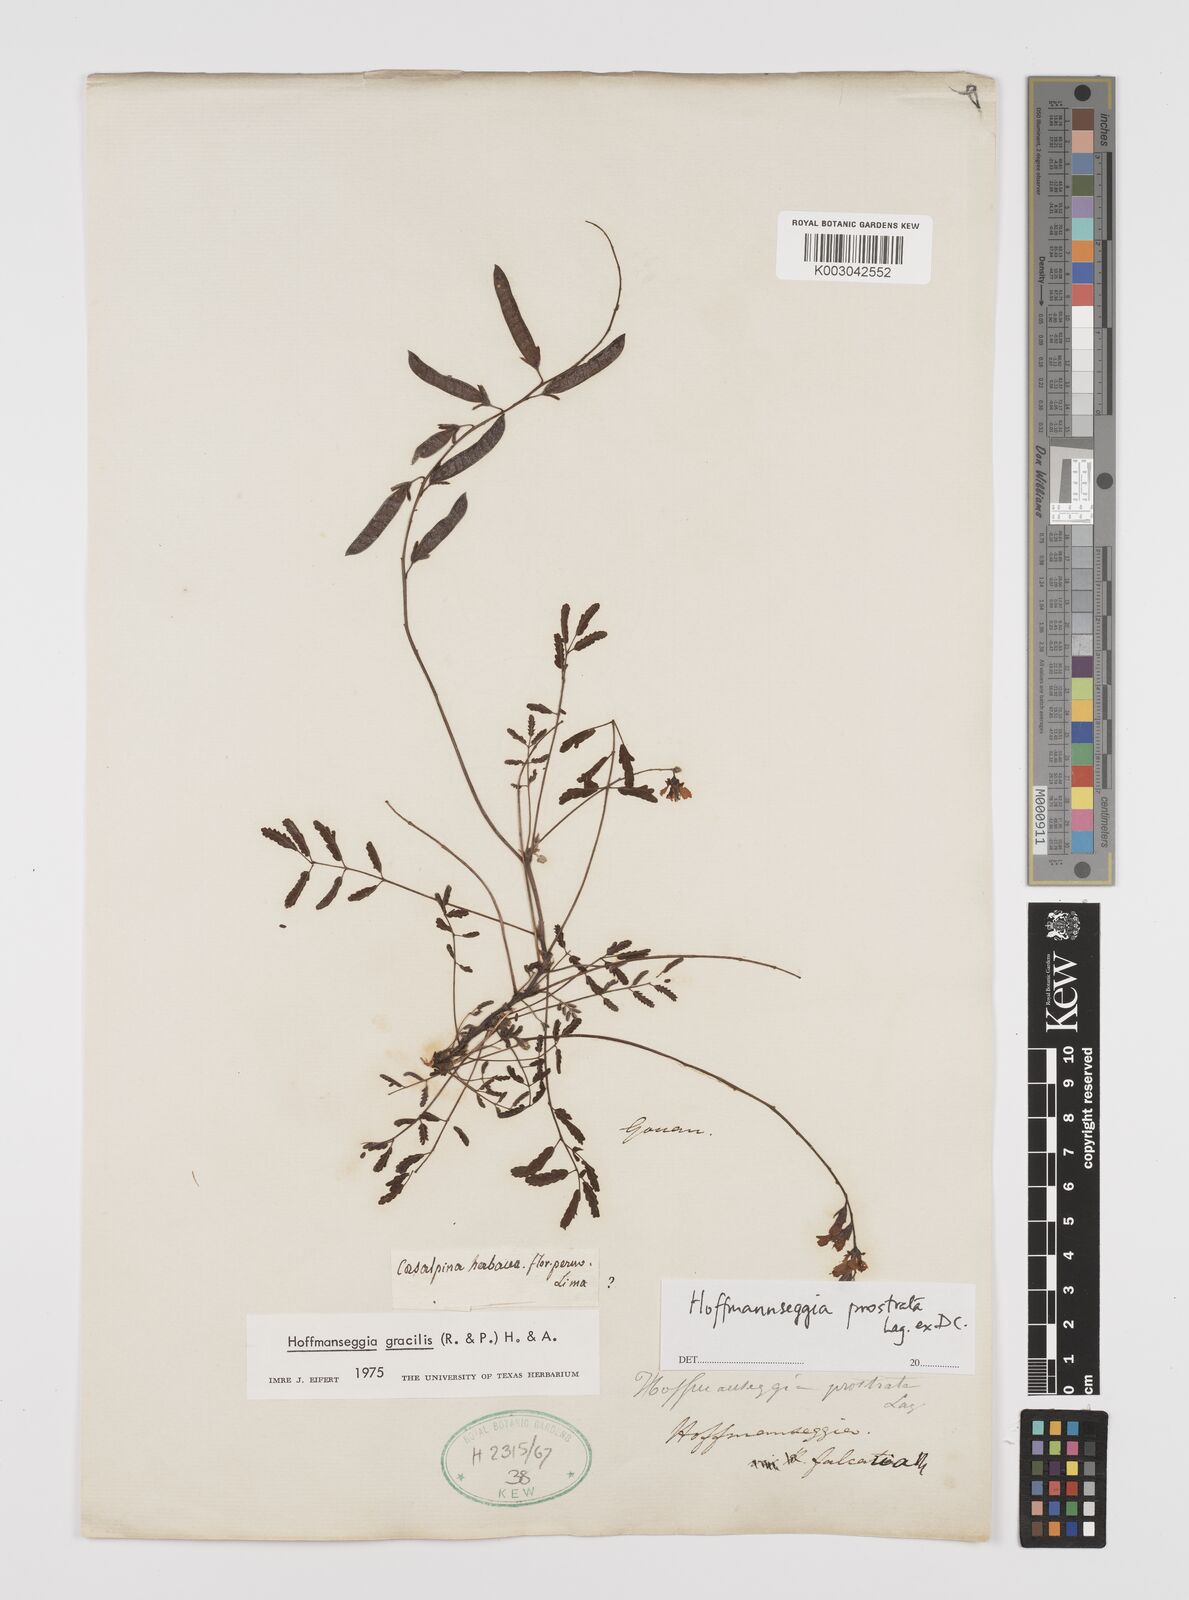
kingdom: Plantae
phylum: Tracheophyta
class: Magnoliopsida
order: Fabales
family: Fabaceae
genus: Hoffmannseggia
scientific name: Hoffmannseggia prostrata
